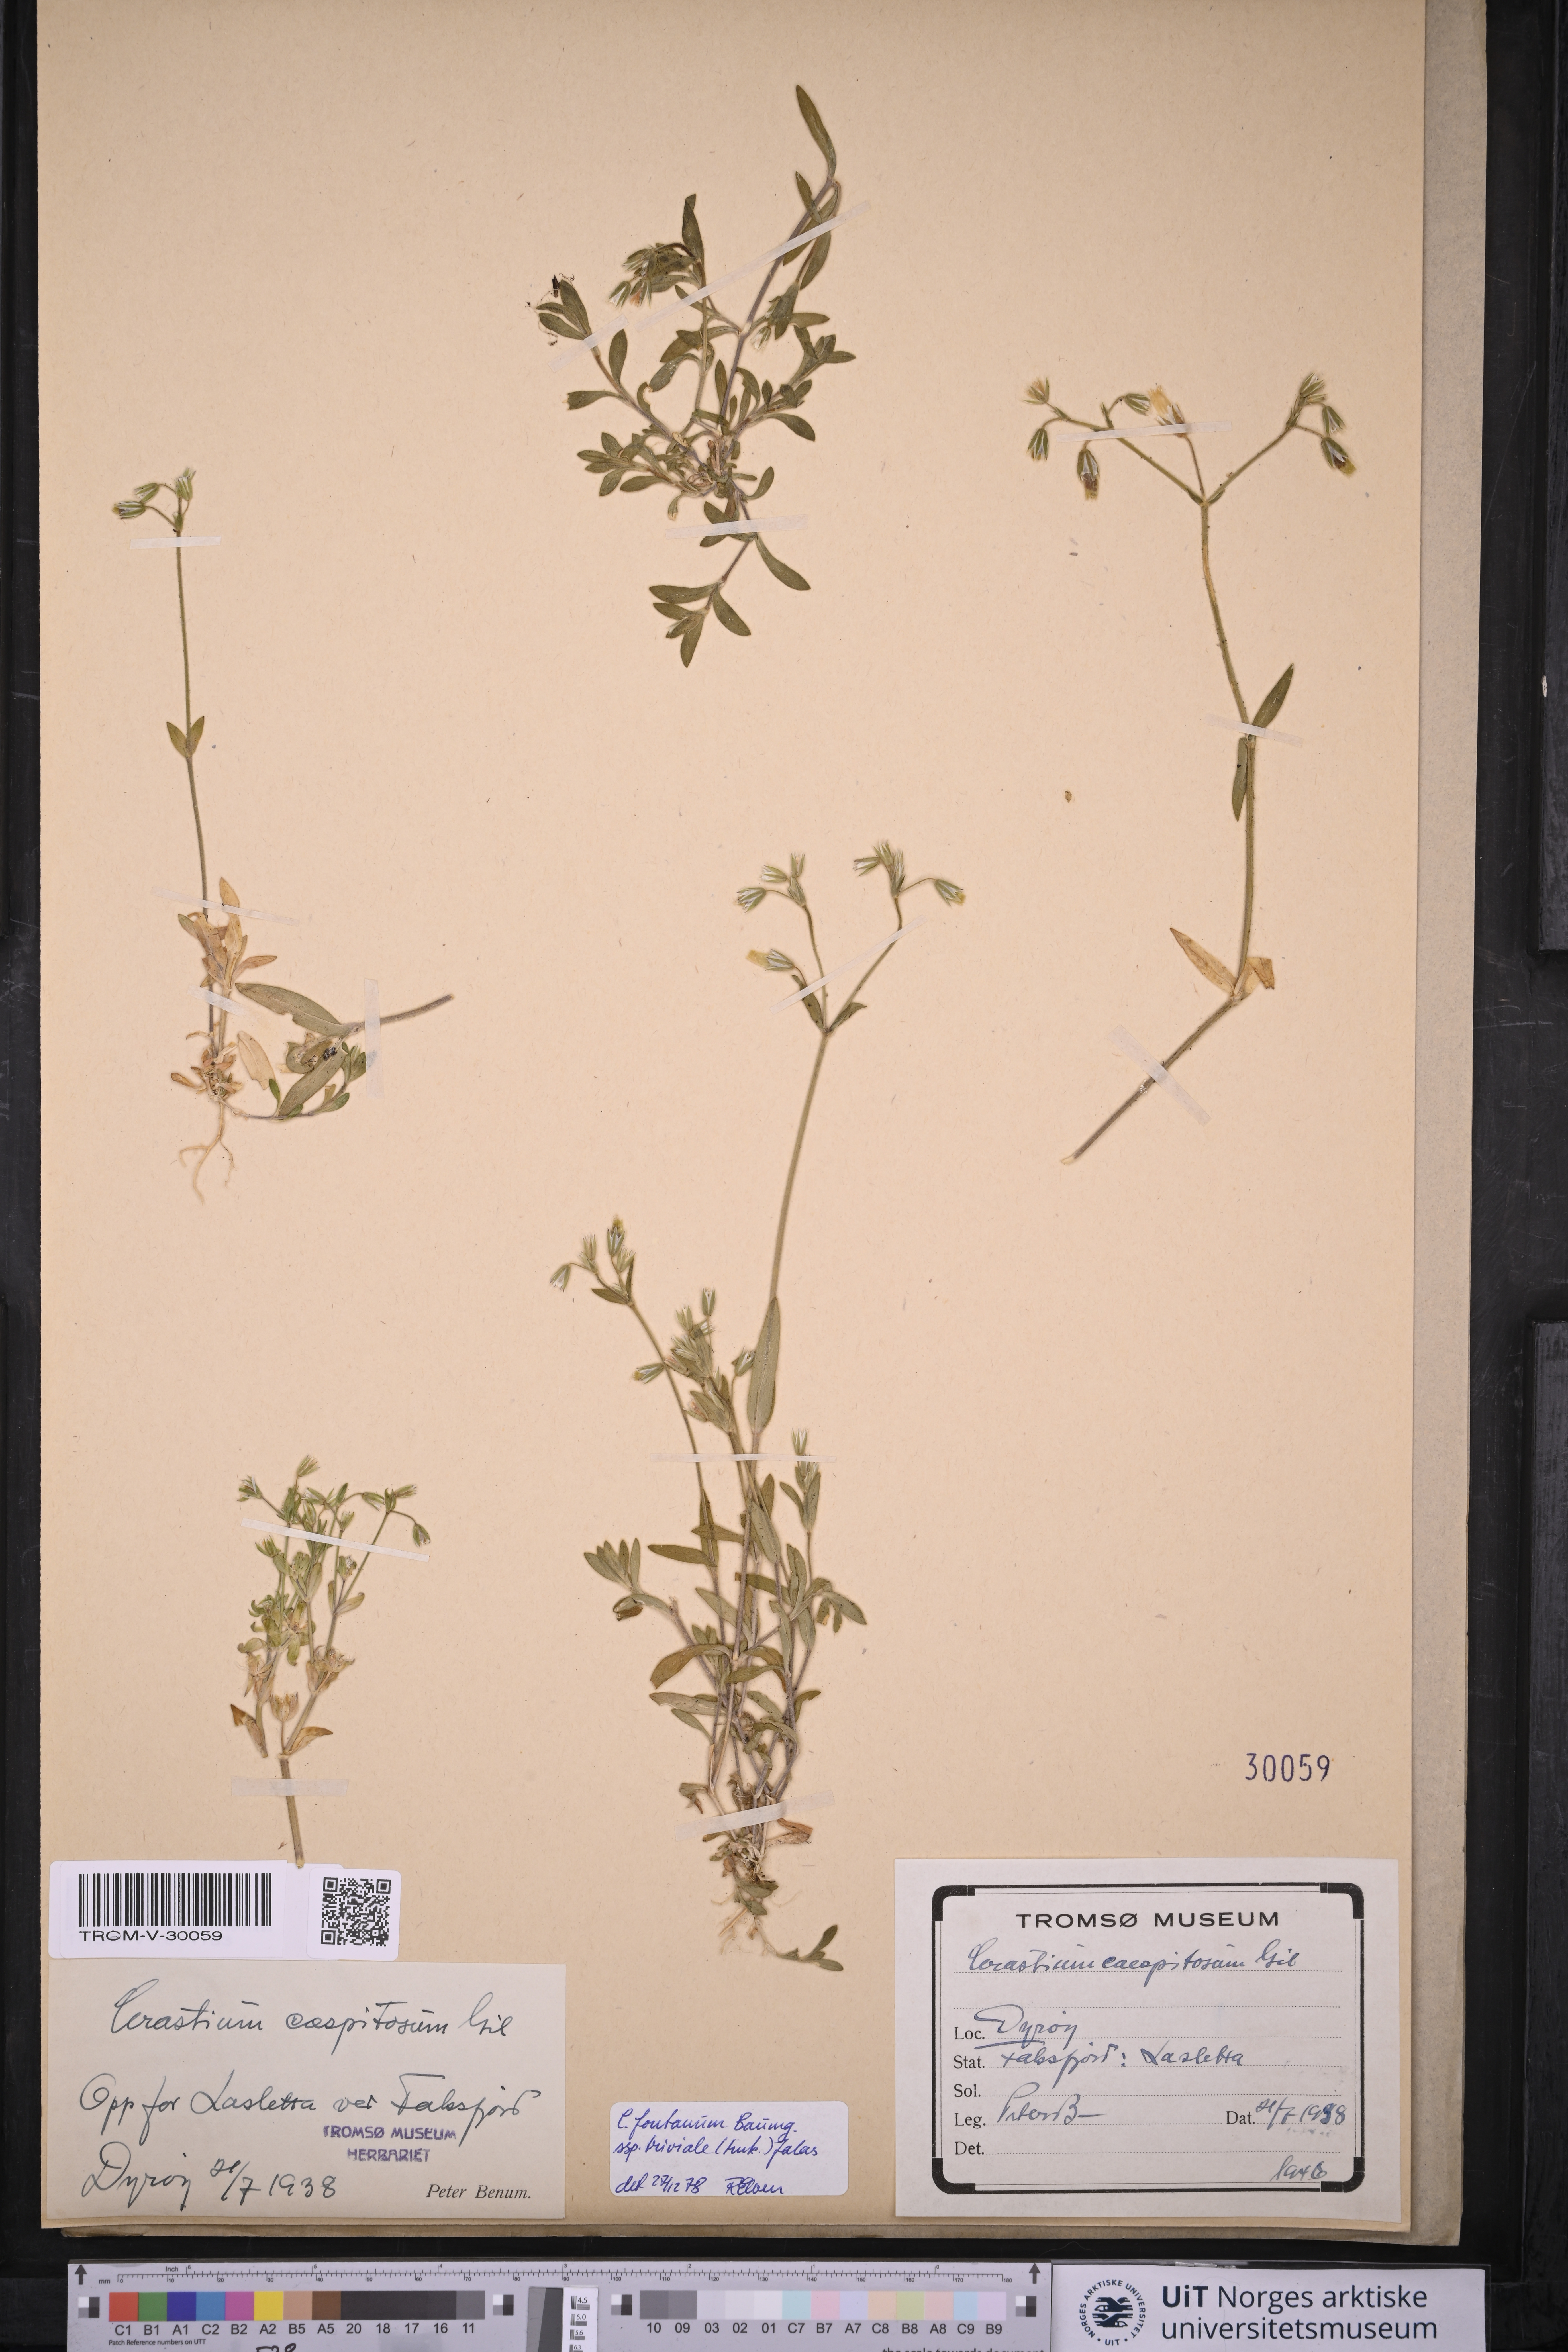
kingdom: Plantae
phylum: Tracheophyta
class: Magnoliopsida
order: Caryophyllales
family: Caryophyllaceae
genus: Cerastium
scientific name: Cerastium holosteoides
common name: Big chickweed
